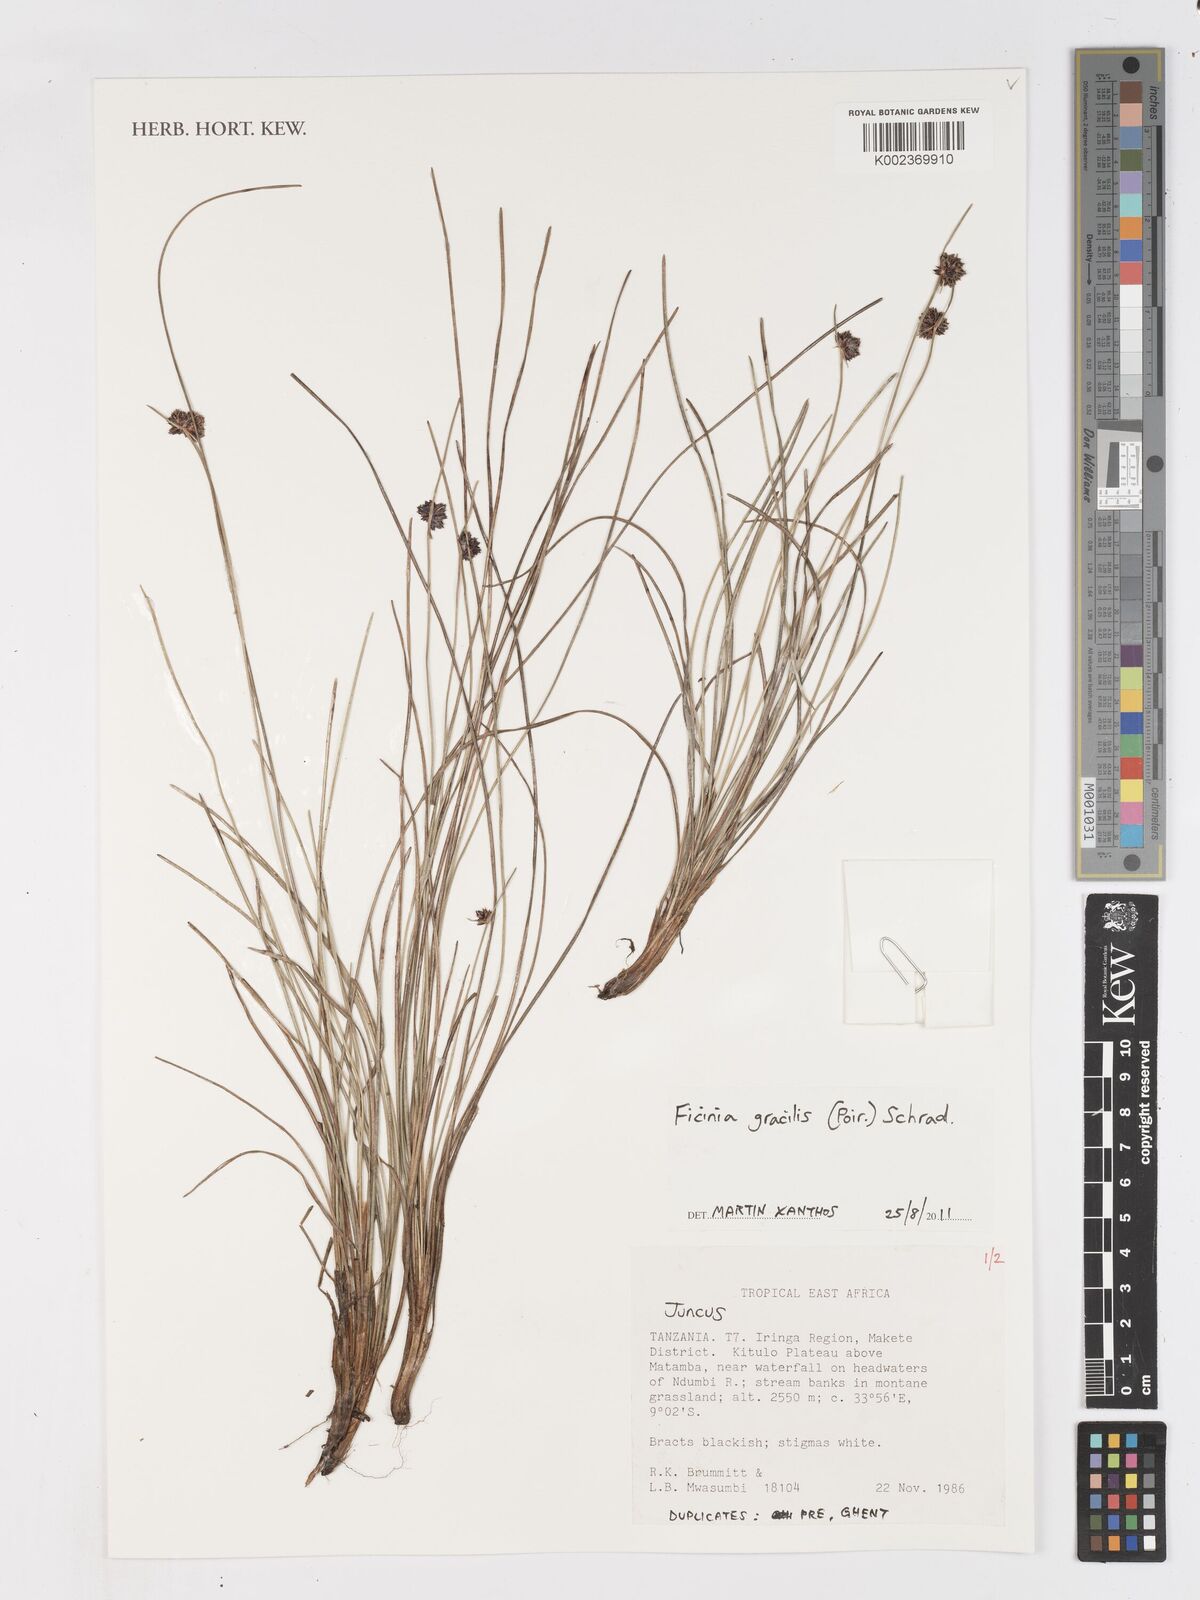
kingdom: Plantae
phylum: Tracheophyta
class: Liliopsida
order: Poales
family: Cyperaceae
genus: Ficinia
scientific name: Ficinia gracilis
